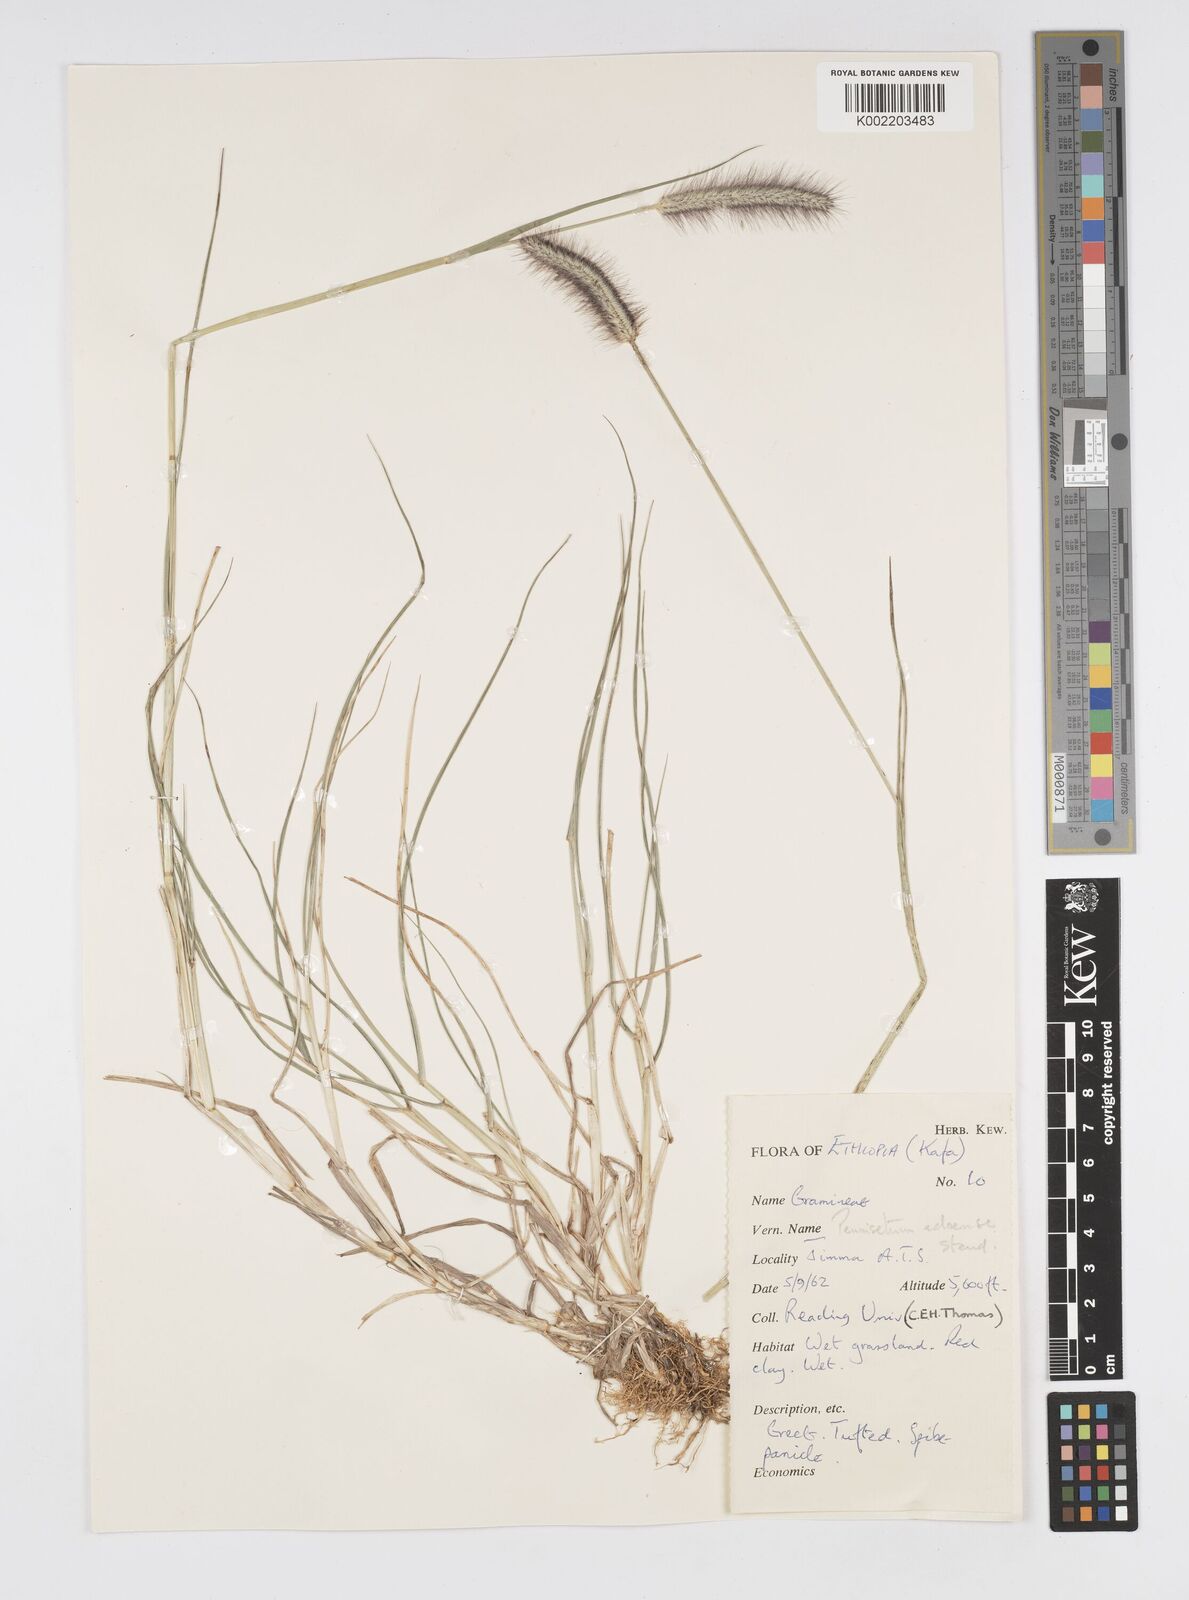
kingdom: Plantae
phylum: Tracheophyta
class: Liliopsida
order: Poales
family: Poaceae
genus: Cenchrus
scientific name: Cenchrus geniculatus
